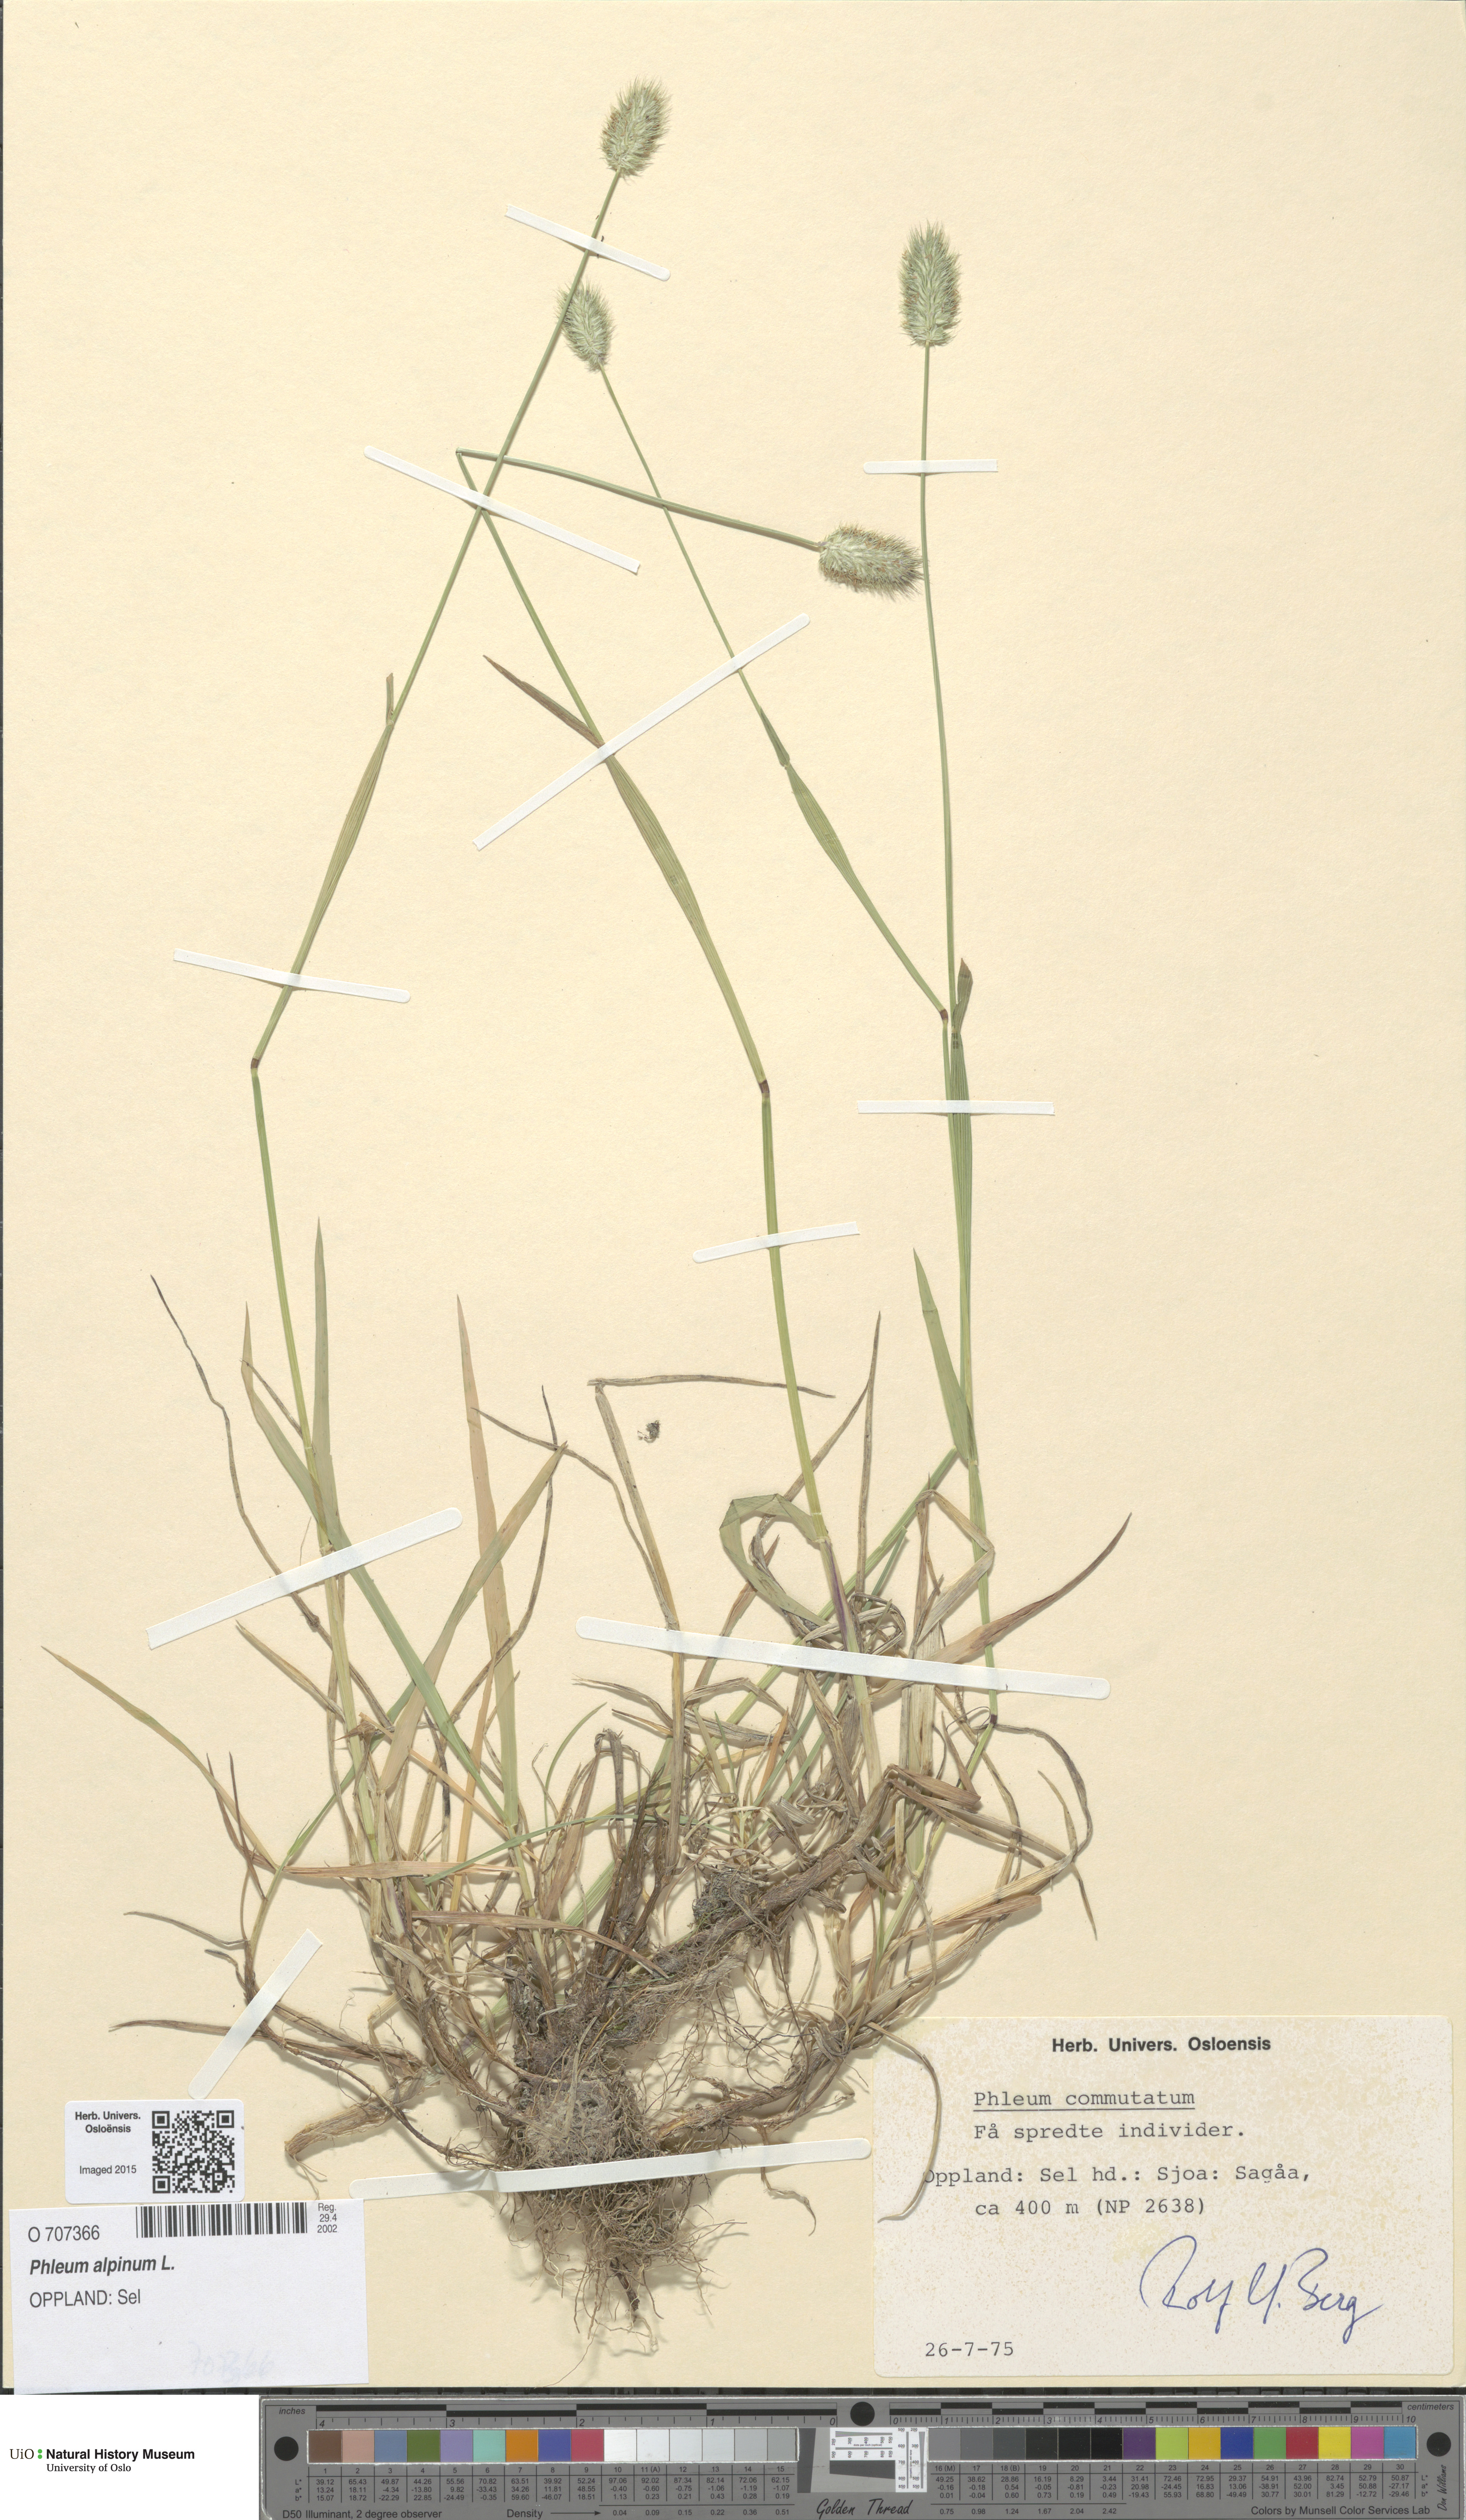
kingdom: Plantae
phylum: Tracheophyta
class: Liliopsida
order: Poales
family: Poaceae
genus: Phleum
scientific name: Phleum alpinum
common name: Alpine cat's-tail
